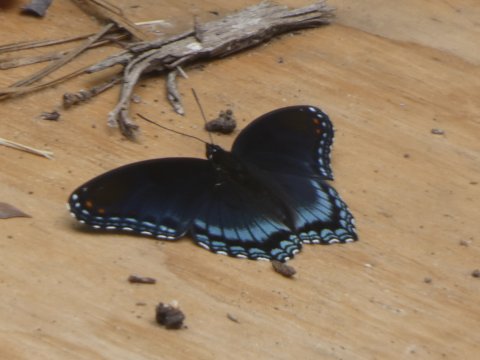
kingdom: Animalia
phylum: Arthropoda
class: Insecta
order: Lepidoptera
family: Nymphalidae
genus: Limenitis
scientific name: Limenitis arthemis
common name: Red-spotted Admiral
